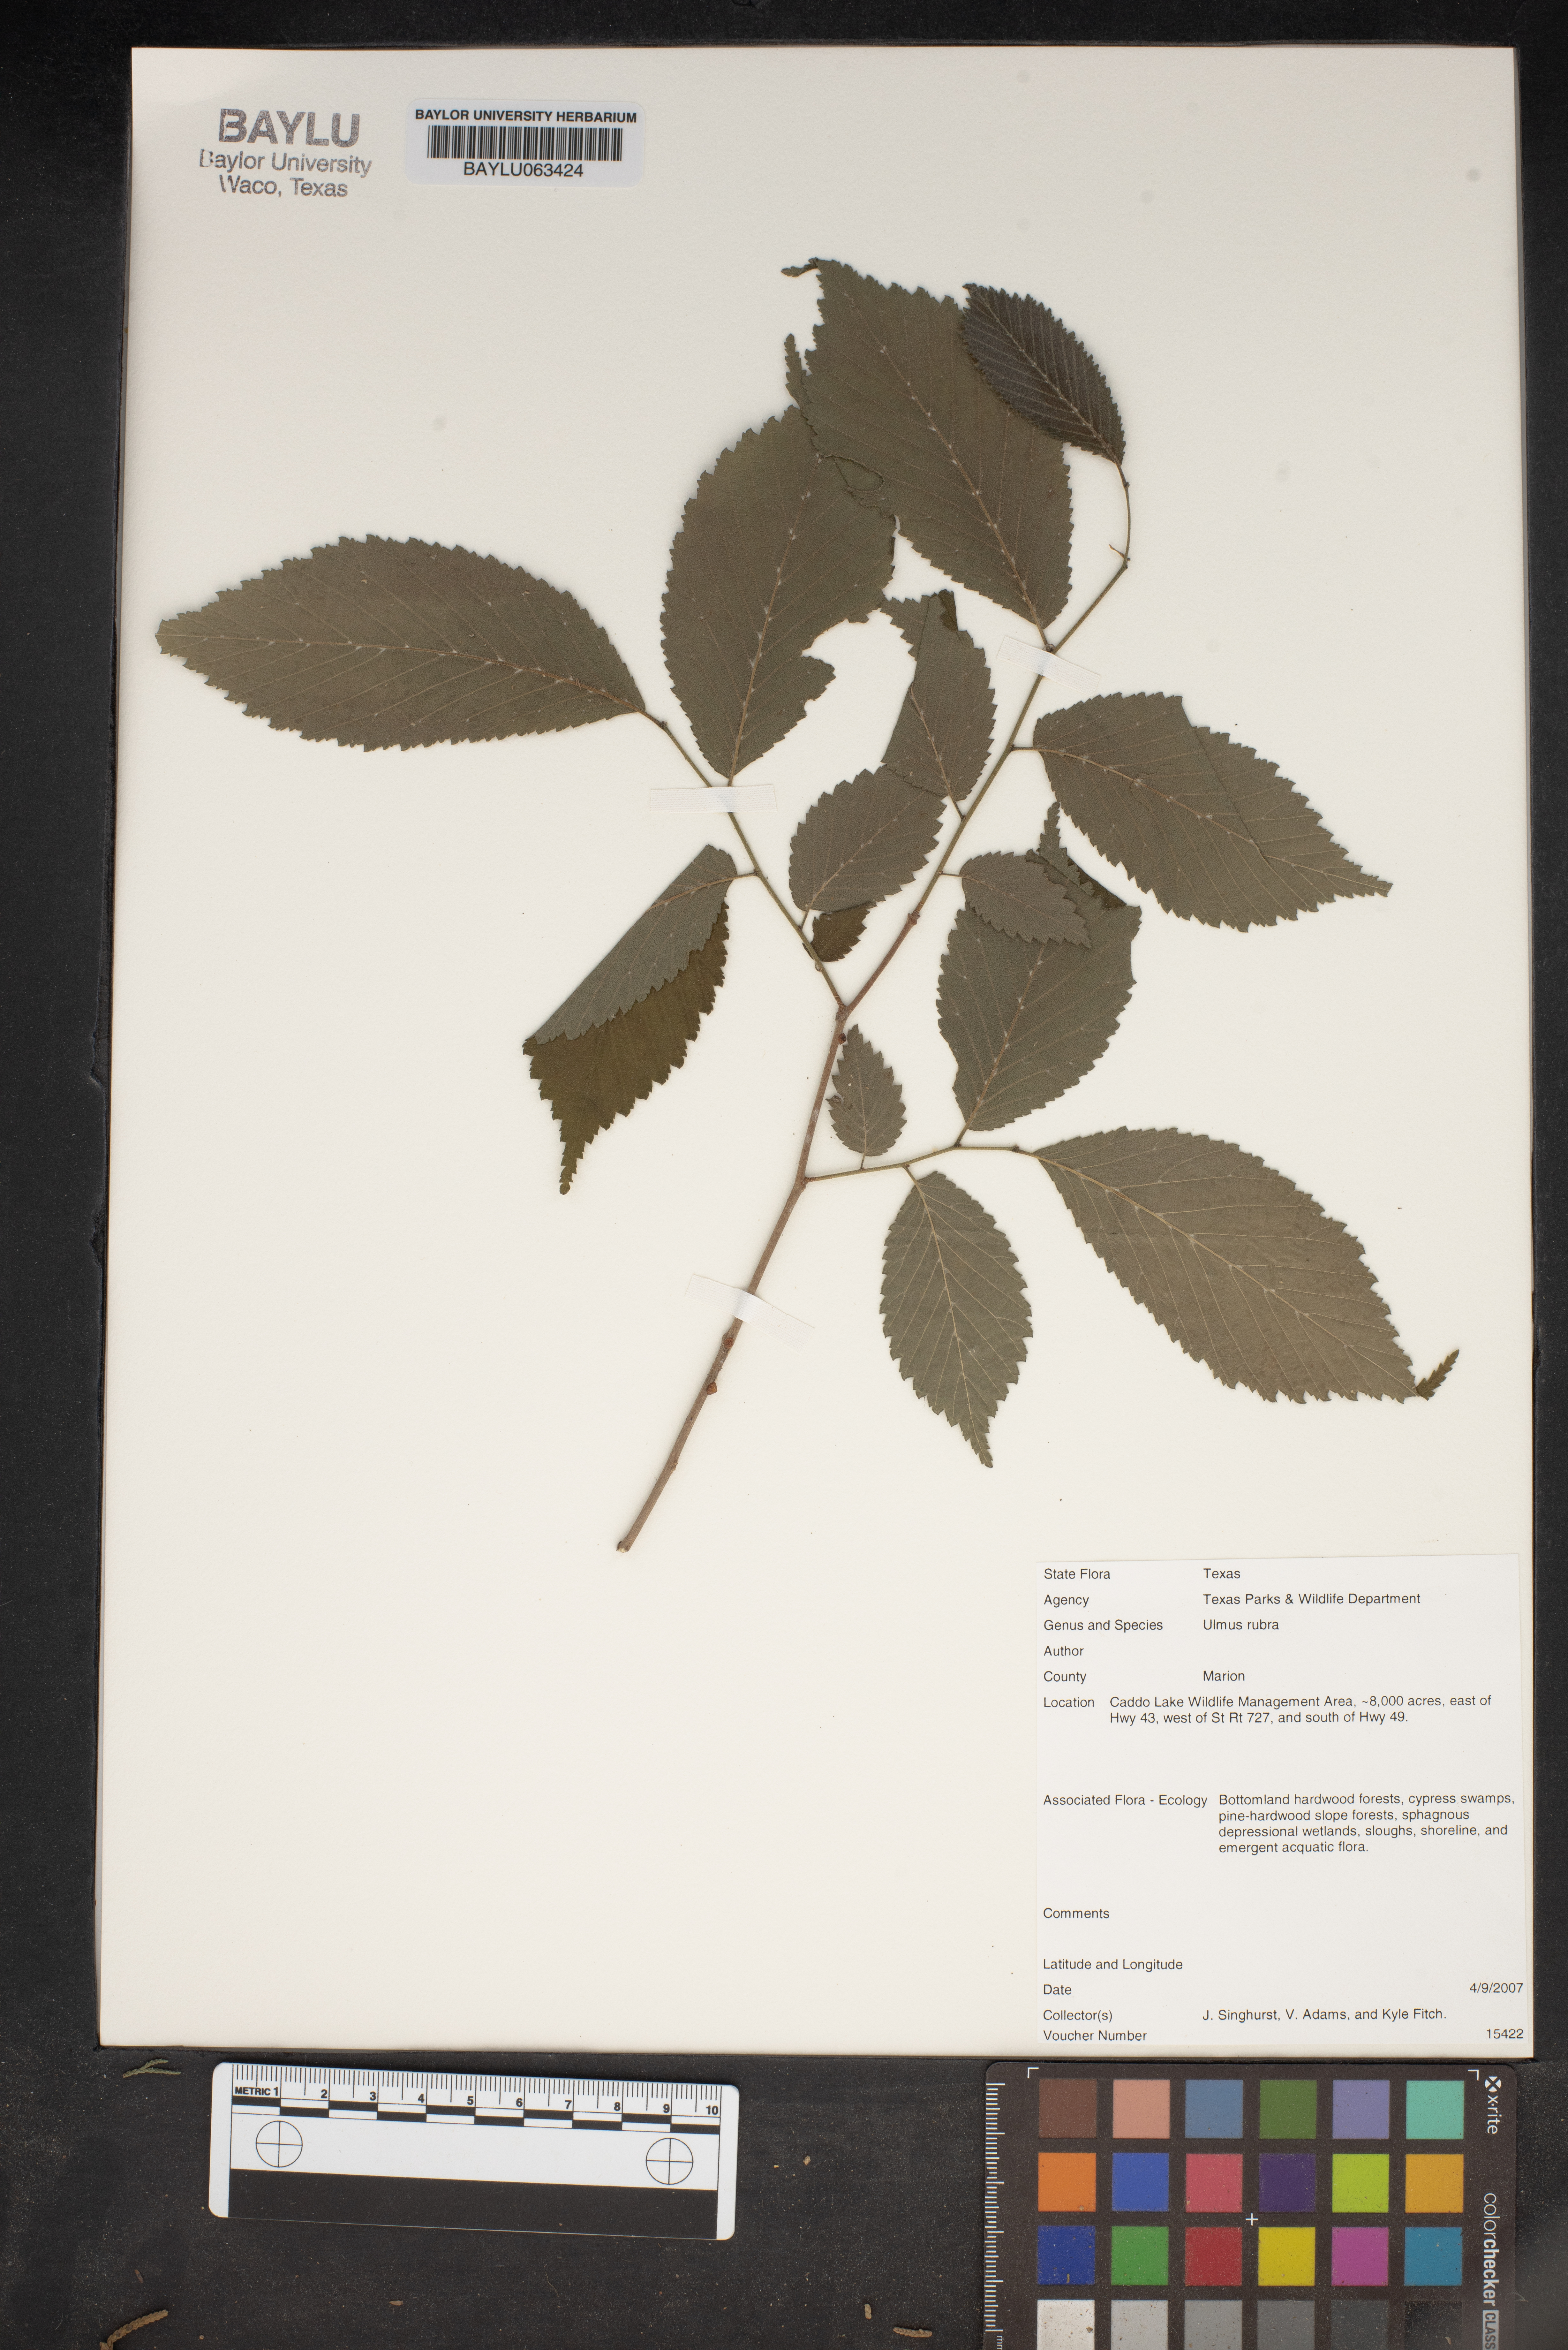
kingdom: Plantae
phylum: Tracheophyta
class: Magnoliopsida
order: Rosales
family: Ulmaceae
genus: Ulmus
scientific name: Ulmus rubra
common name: Slippery elm
